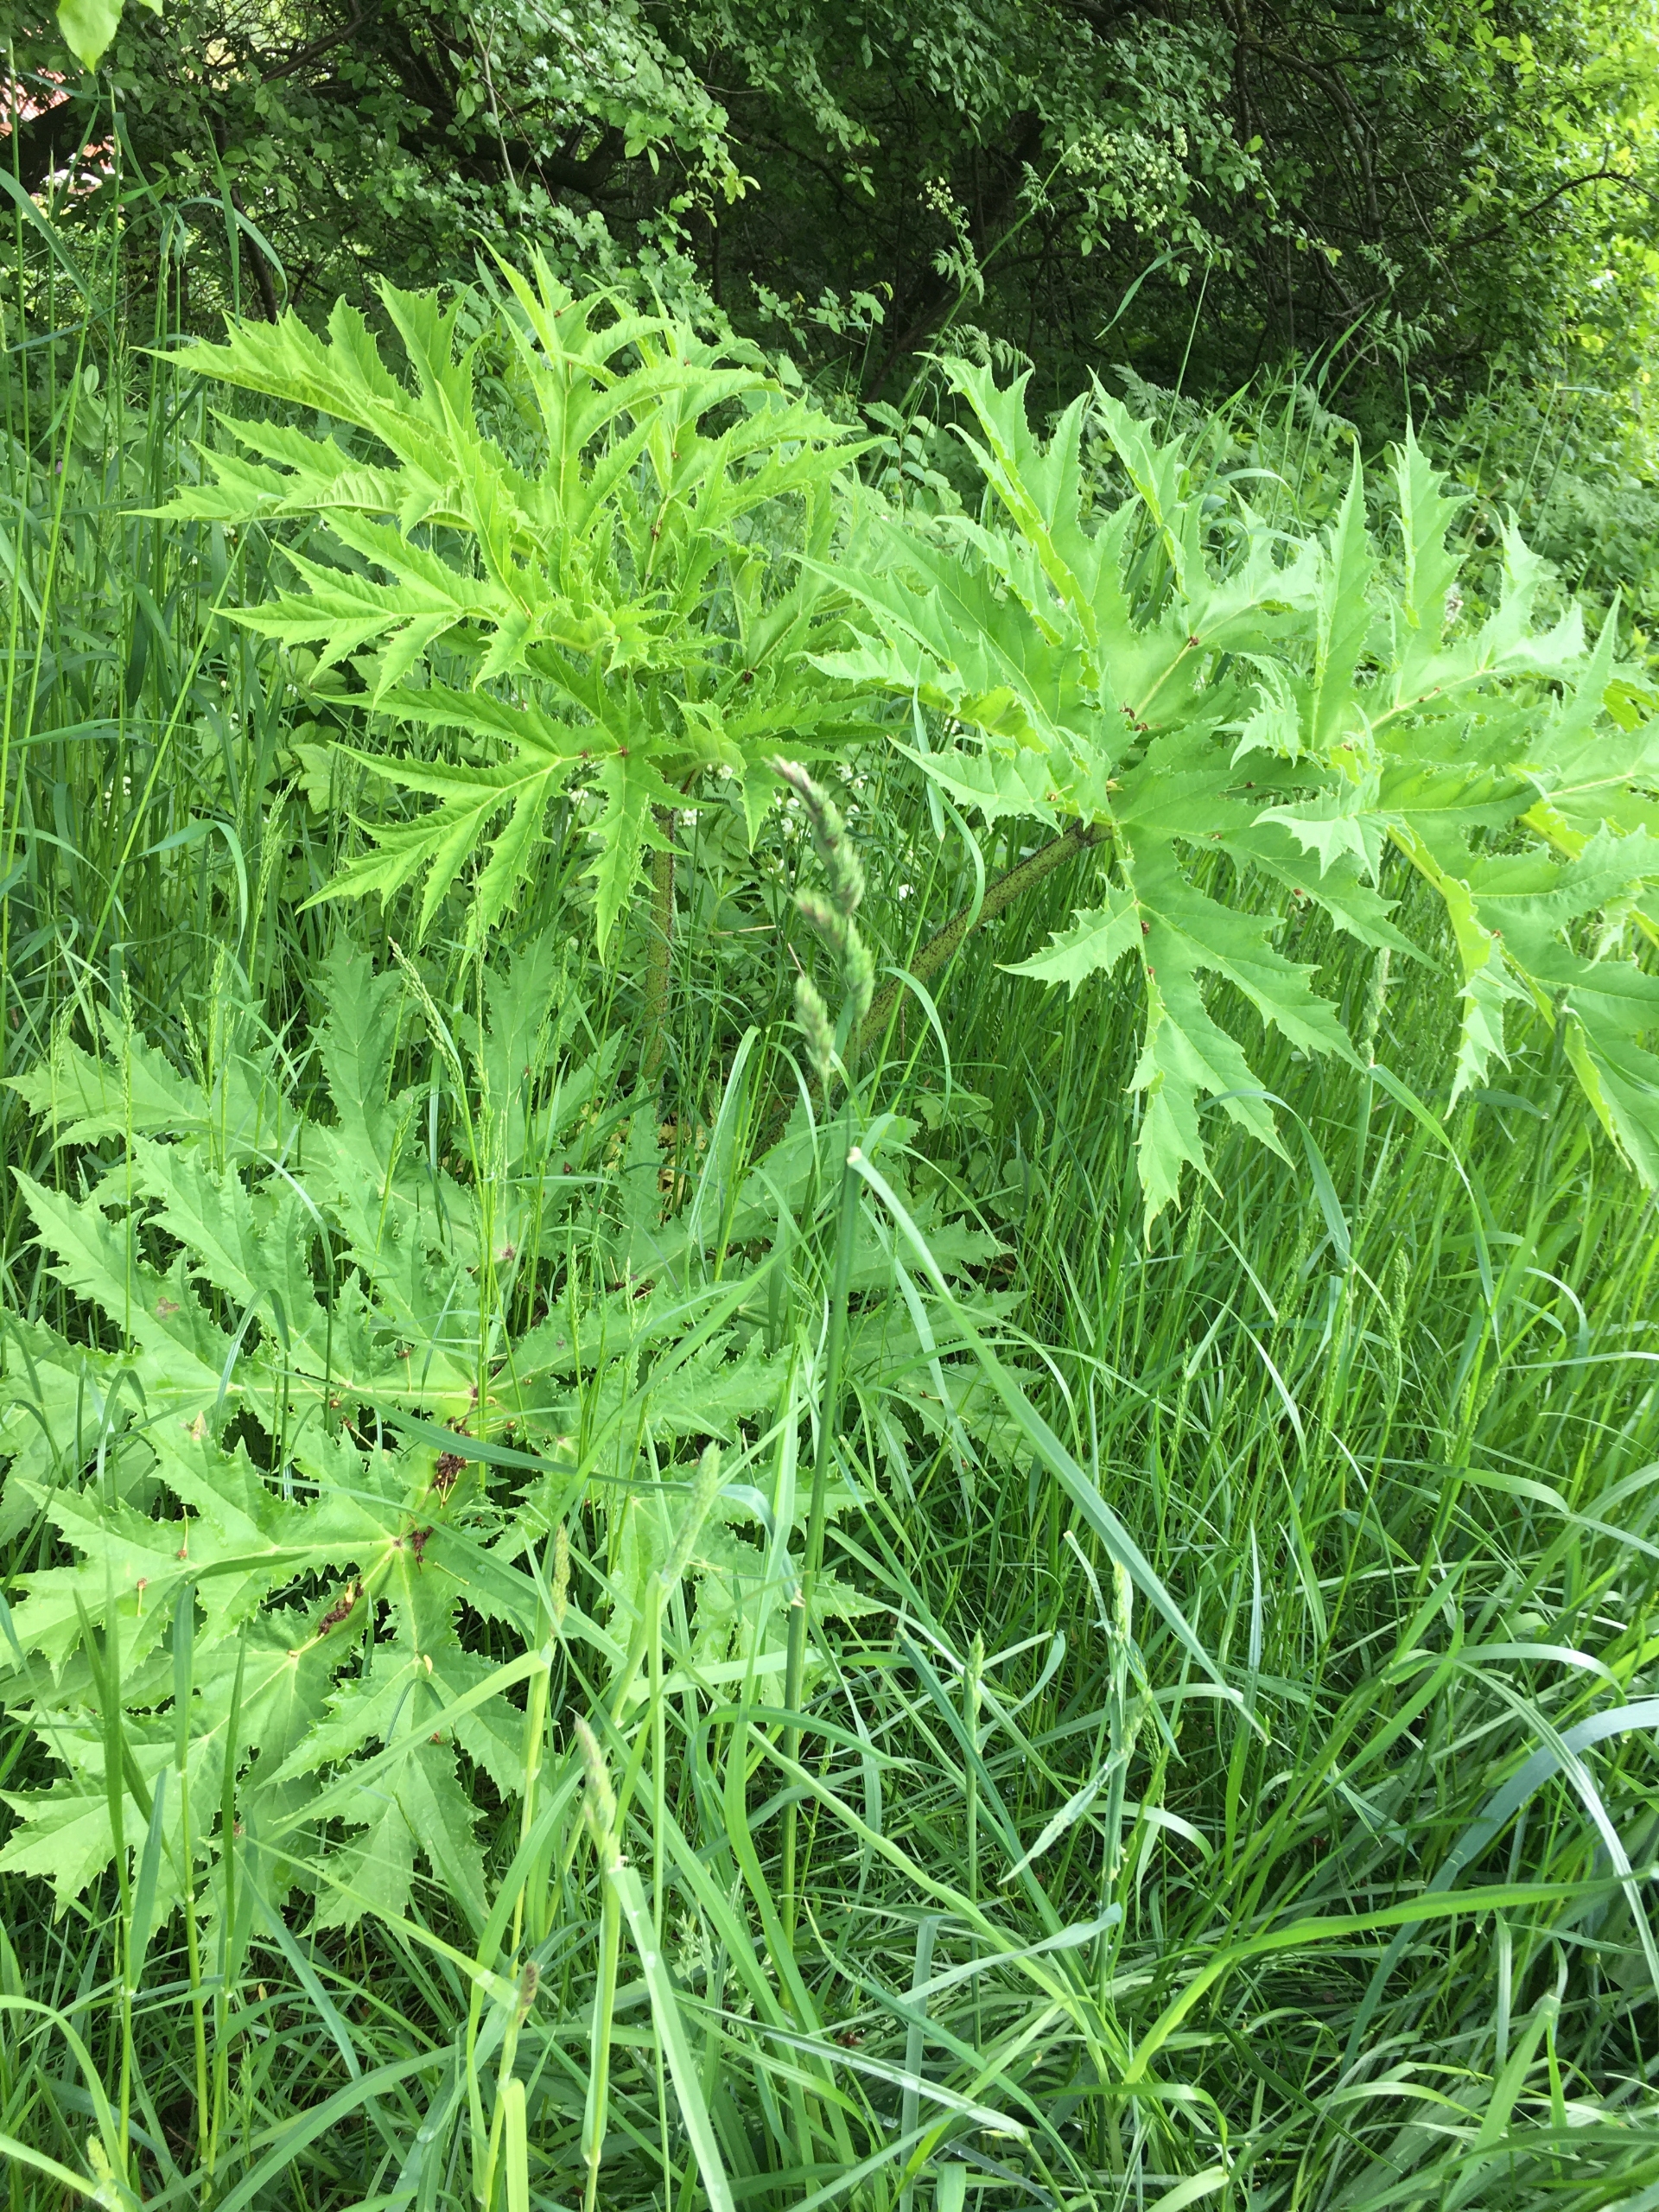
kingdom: Plantae
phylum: Tracheophyta
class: Magnoliopsida
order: Apiales
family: Apiaceae
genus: Heracleum
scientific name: Heracleum mantegazzianum
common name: Kæmpe-bjørneklo
